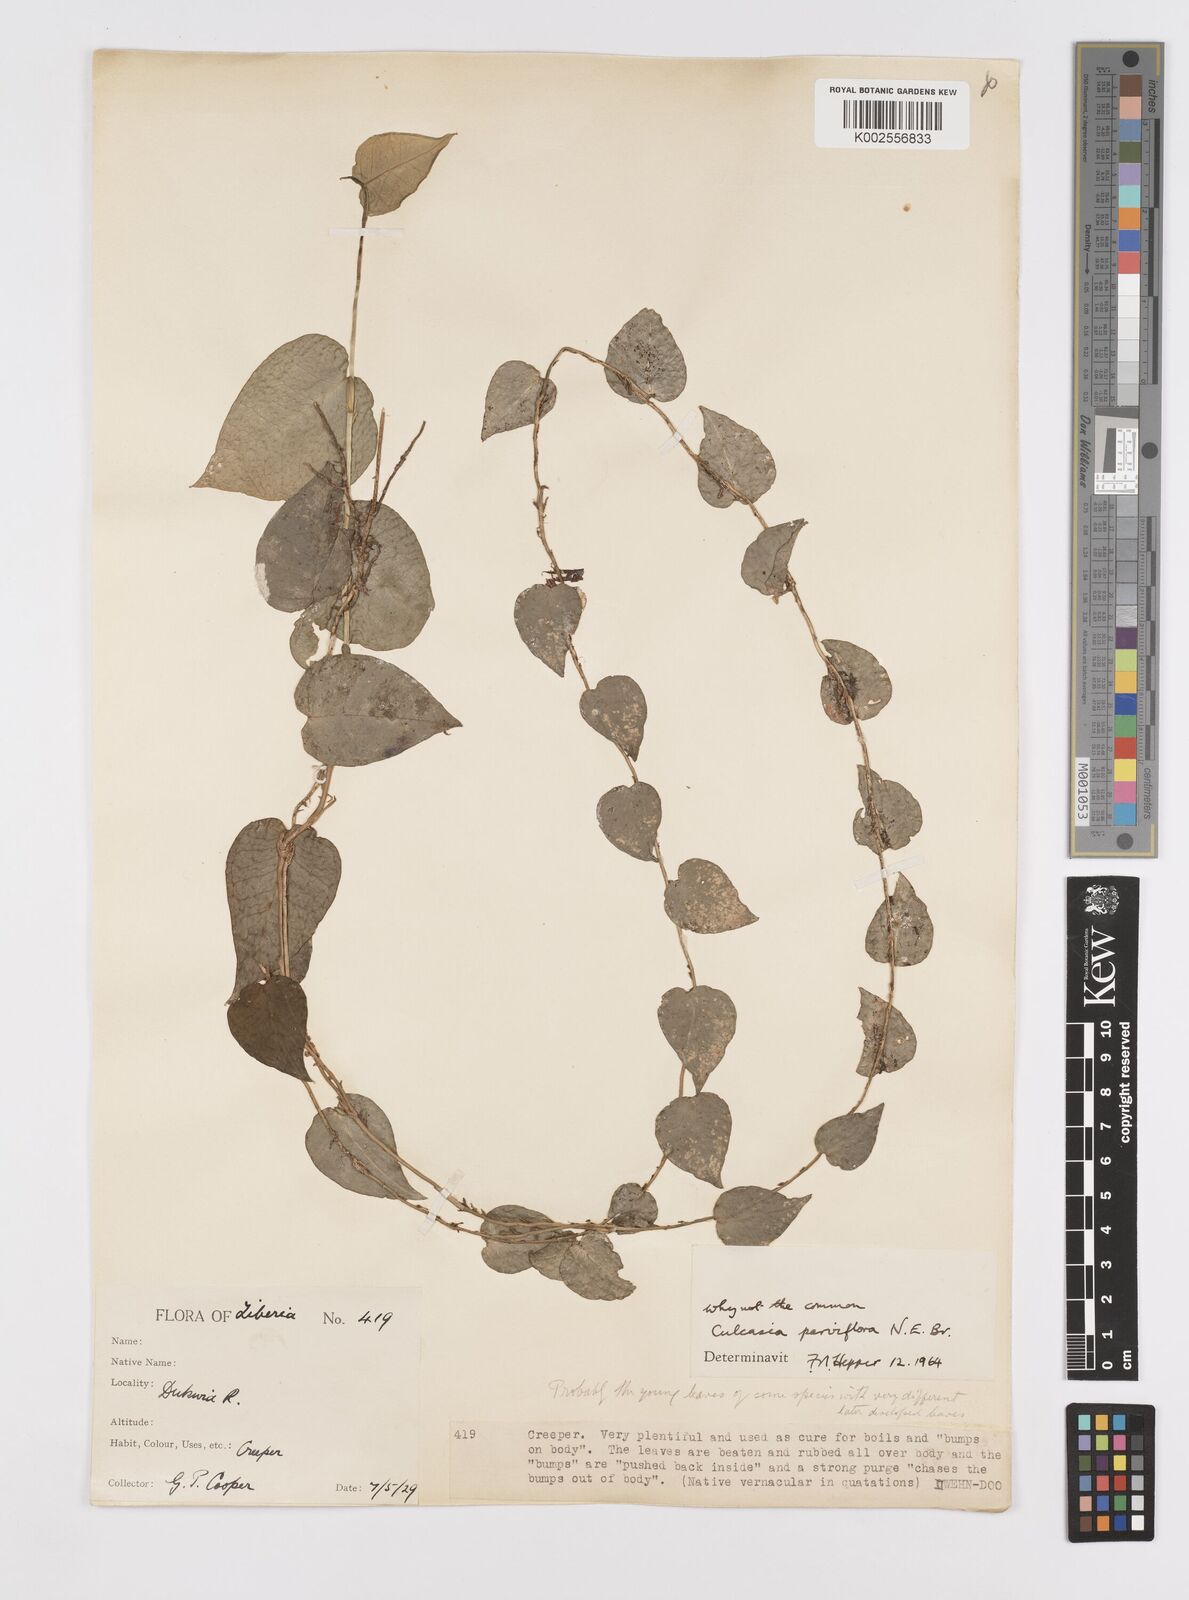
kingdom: Plantae
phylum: Tracheophyta
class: Liliopsida
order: Alismatales
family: Araceae
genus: Culcasia
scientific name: Culcasia parviflora
